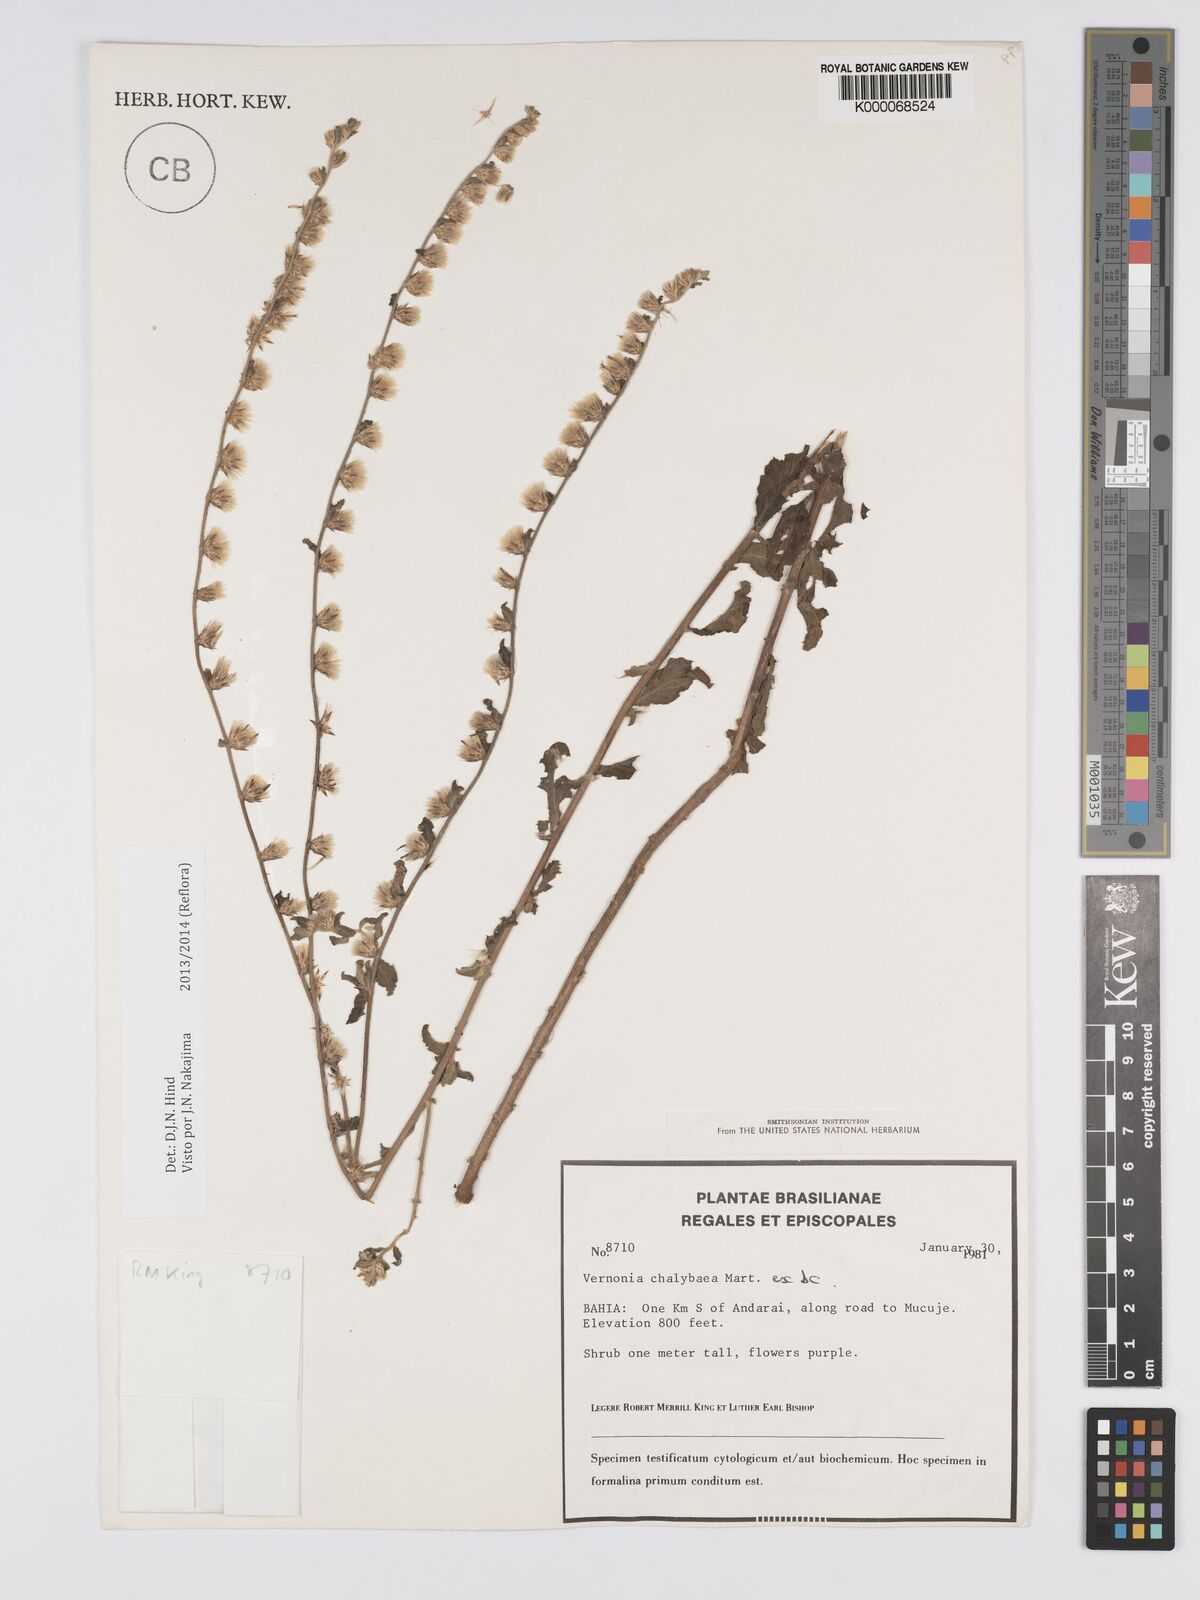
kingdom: Plantae
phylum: Tracheophyta
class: Magnoliopsida
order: Asterales
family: Asteraceae
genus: Lepidaploa
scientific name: Lepidaploa chalybaea
